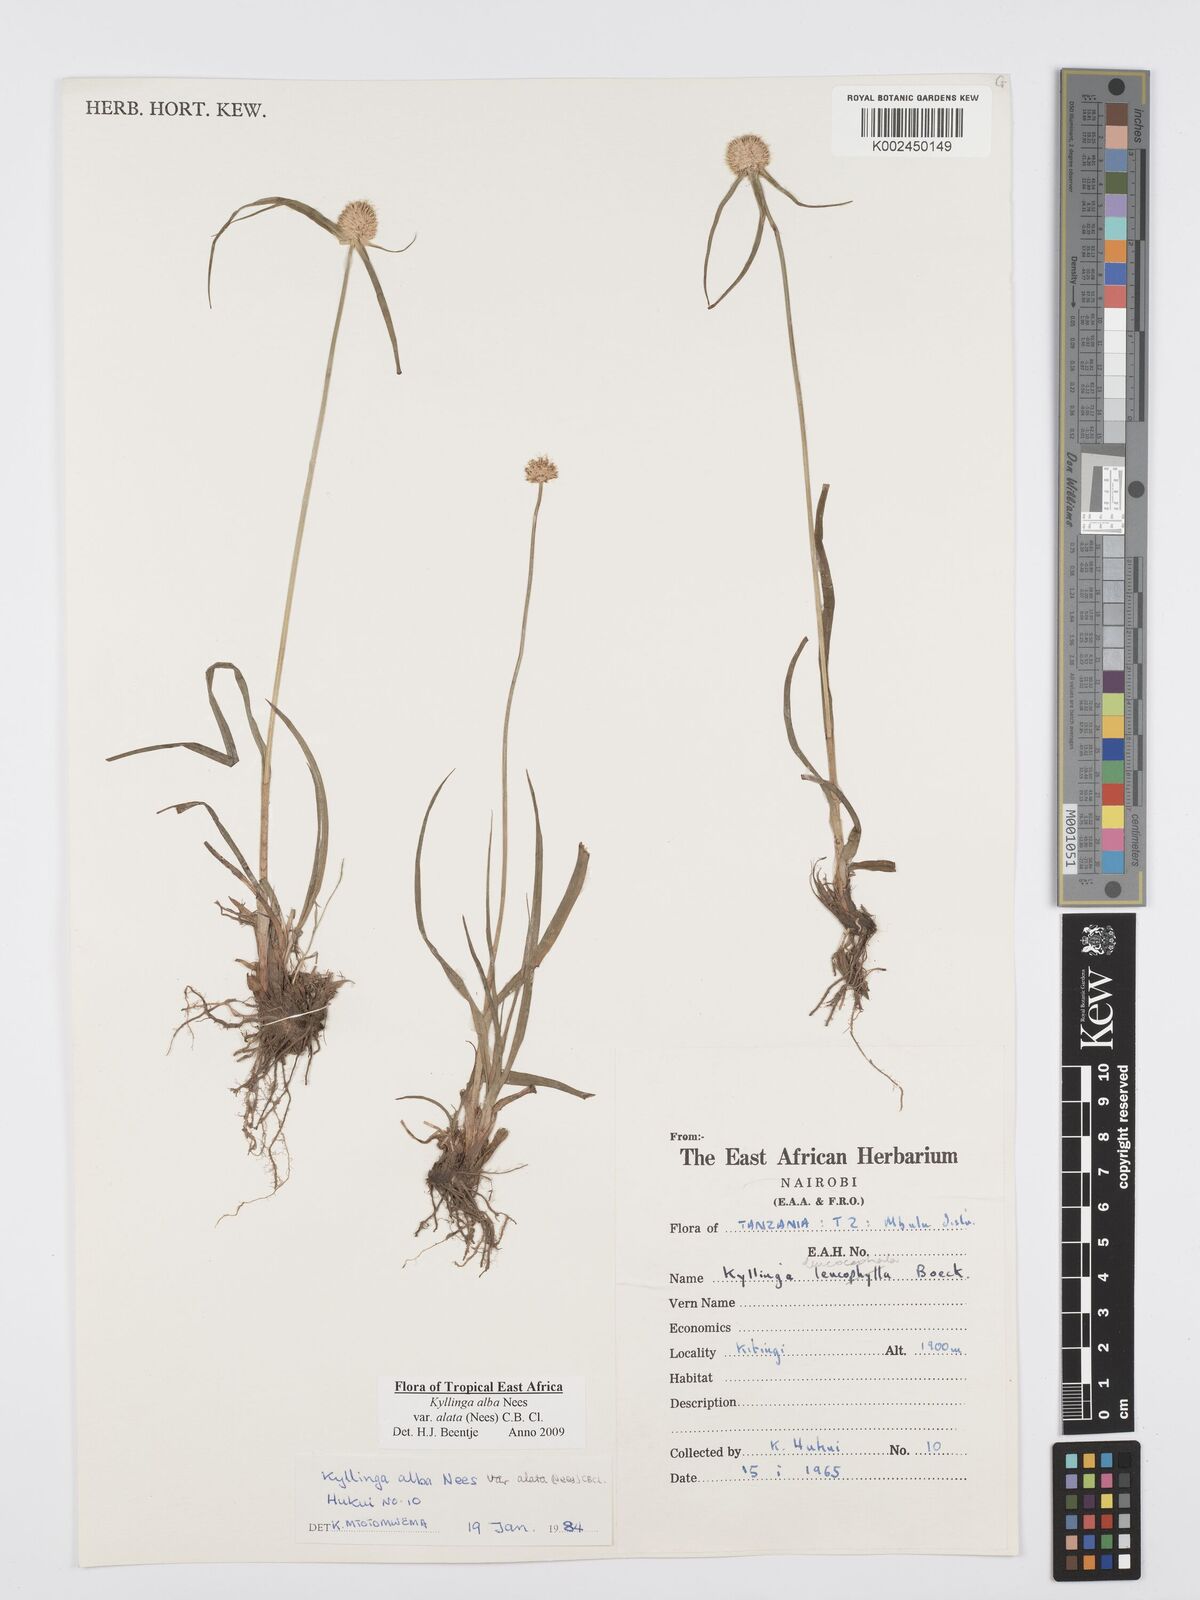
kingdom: Plantae
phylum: Tracheophyta
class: Liliopsida
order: Poales
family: Cyperaceae
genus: Cyperus
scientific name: Cyperus alatus
